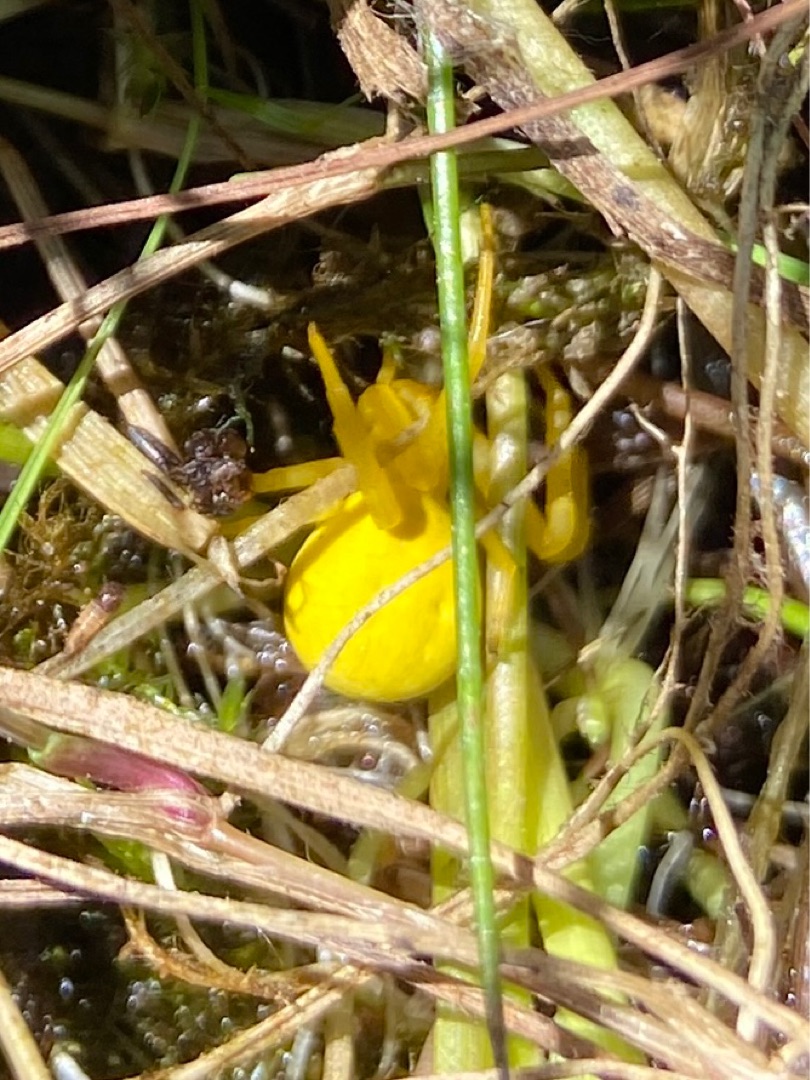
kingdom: Animalia
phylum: Arthropoda
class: Arachnida
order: Araneae
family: Thomisidae
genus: Misumena
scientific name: Misumena vatia
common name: Kamæleonedderkop
